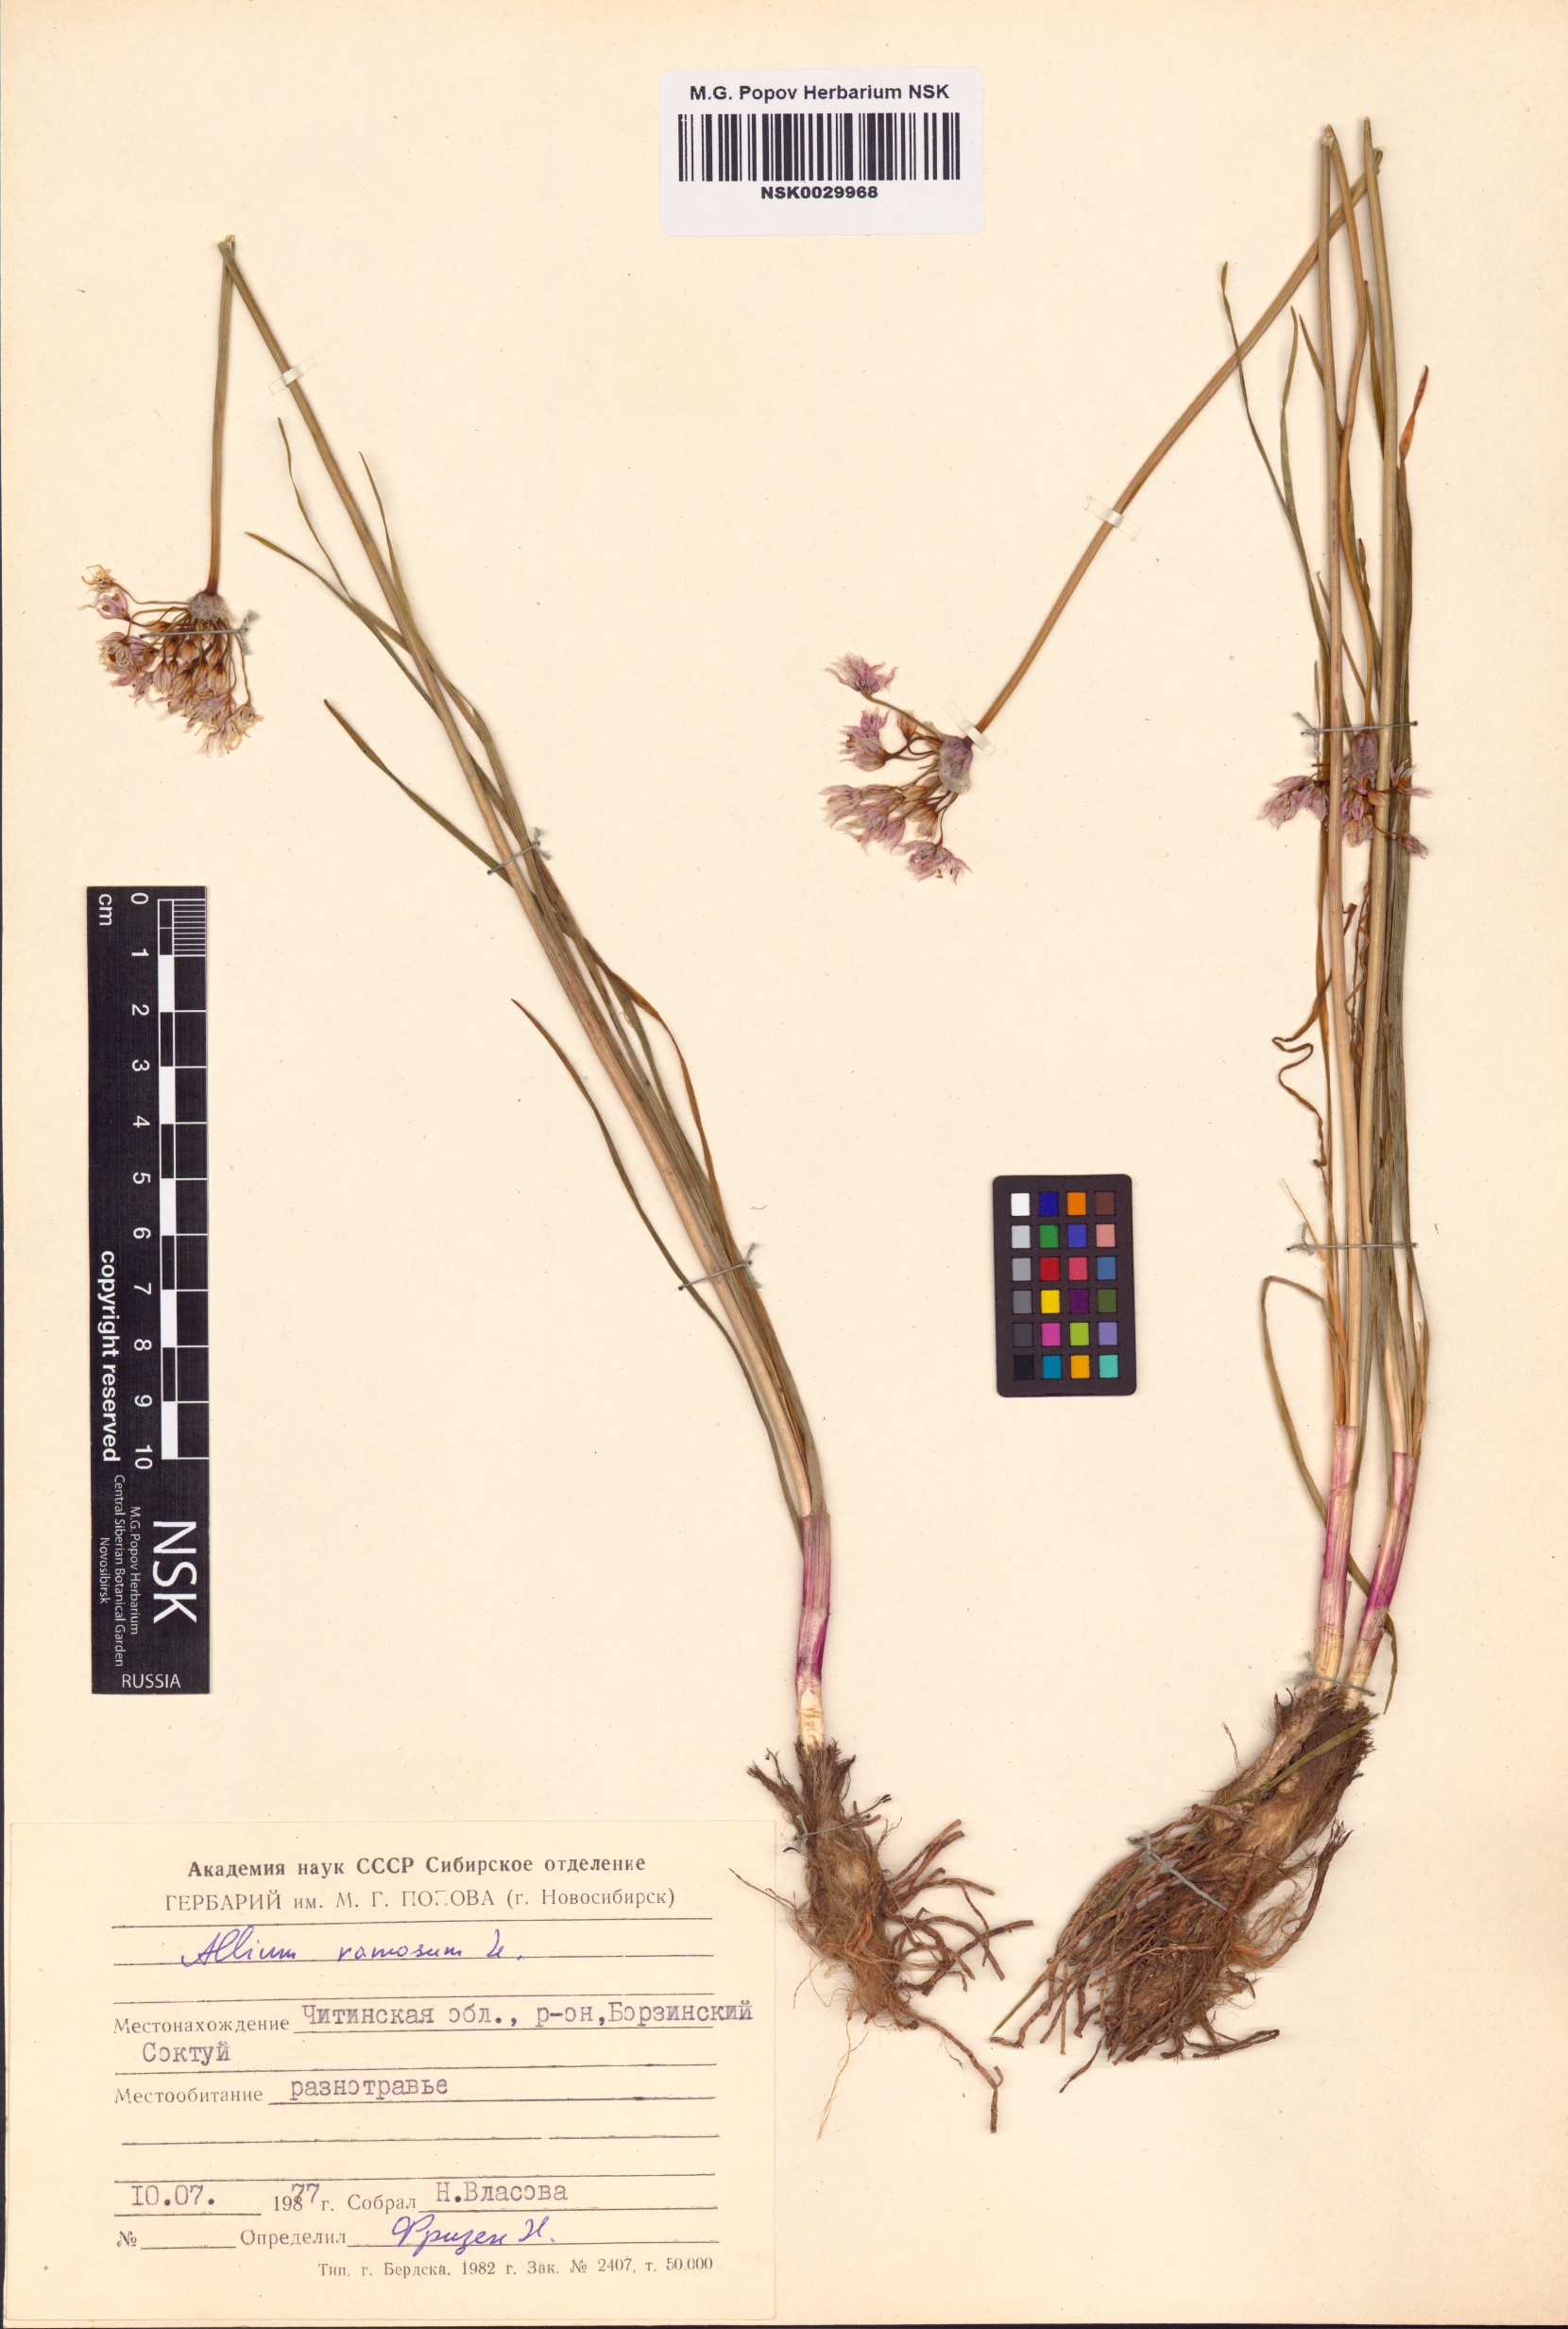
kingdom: Plantae
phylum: Tracheophyta
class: Liliopsida
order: Asparagales
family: Amaryllidaceae
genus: Allium
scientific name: Allium ramosum
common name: Fragrant garlic
